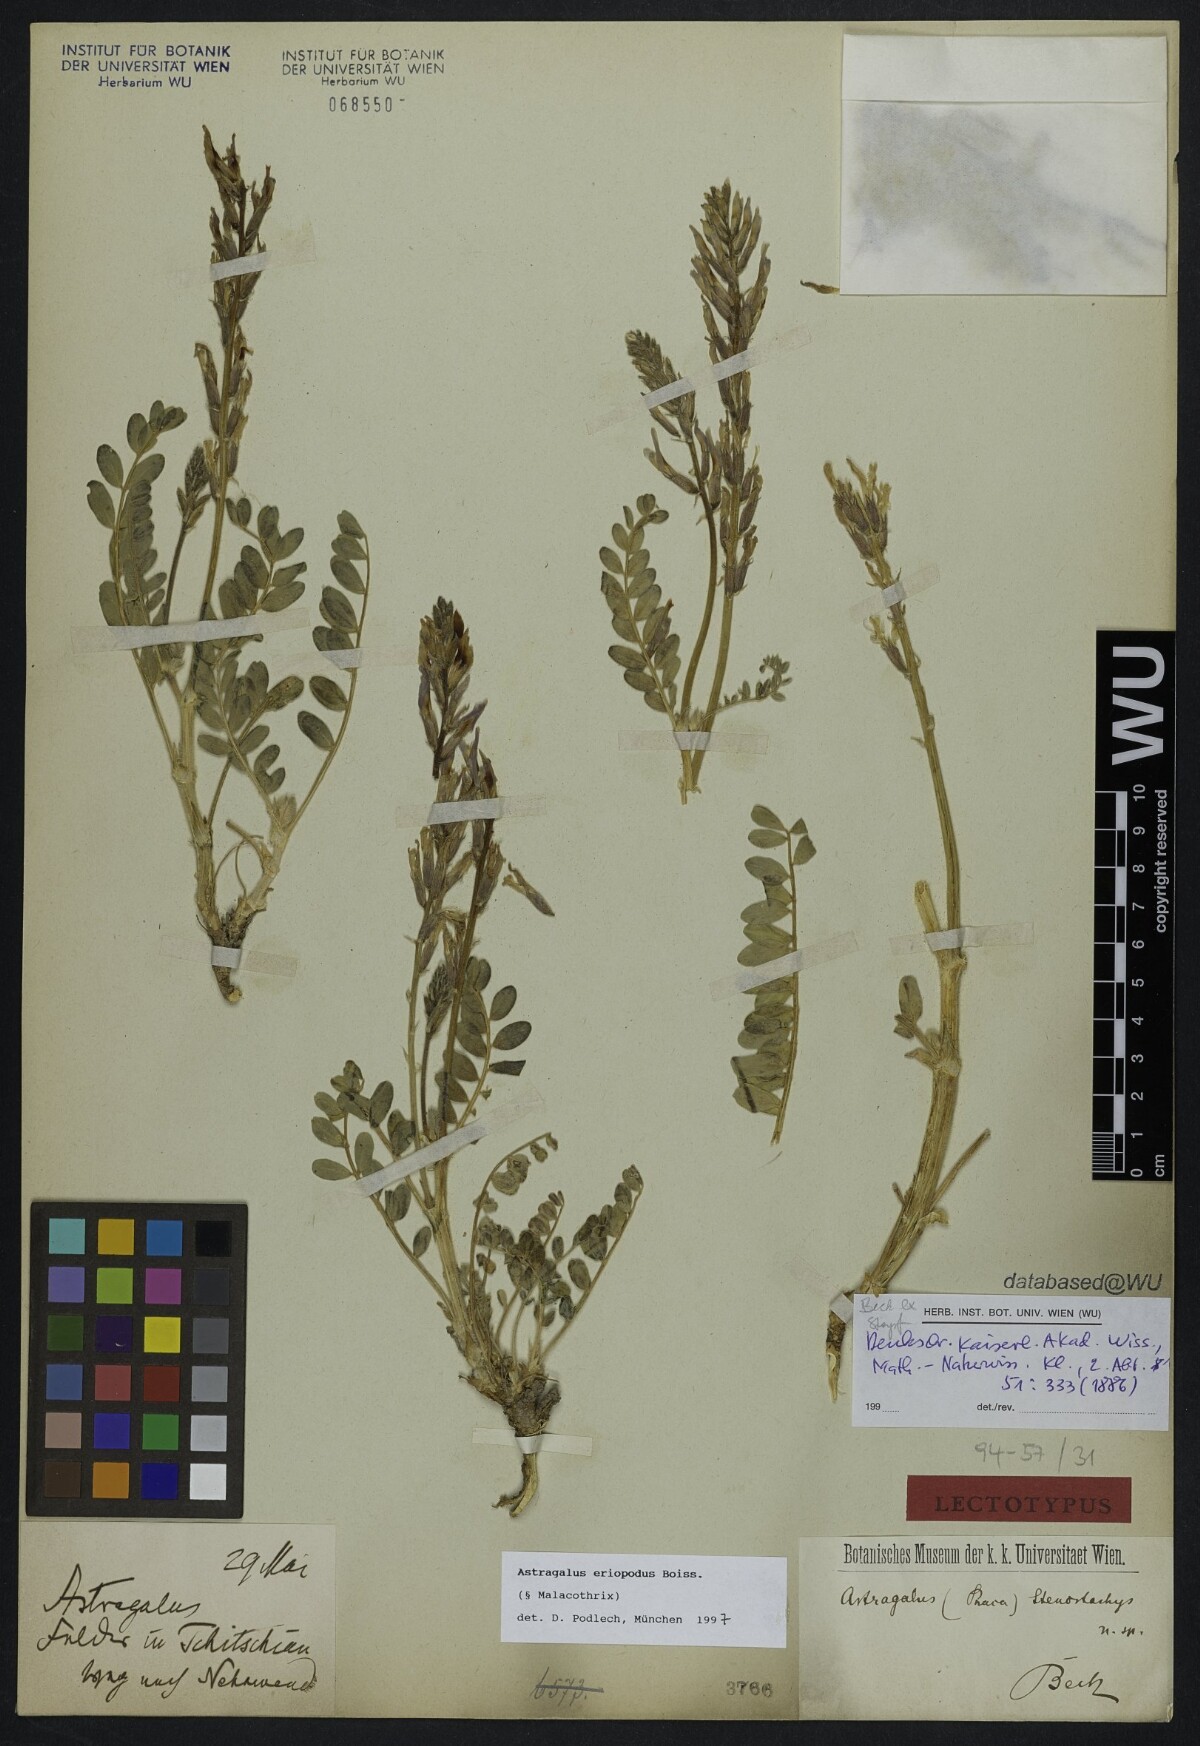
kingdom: Plantae
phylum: Tracheophyta
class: Magnoliopsida
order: Fabales
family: Fabaceae
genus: Astragalus
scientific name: Astragalus eriopodus
